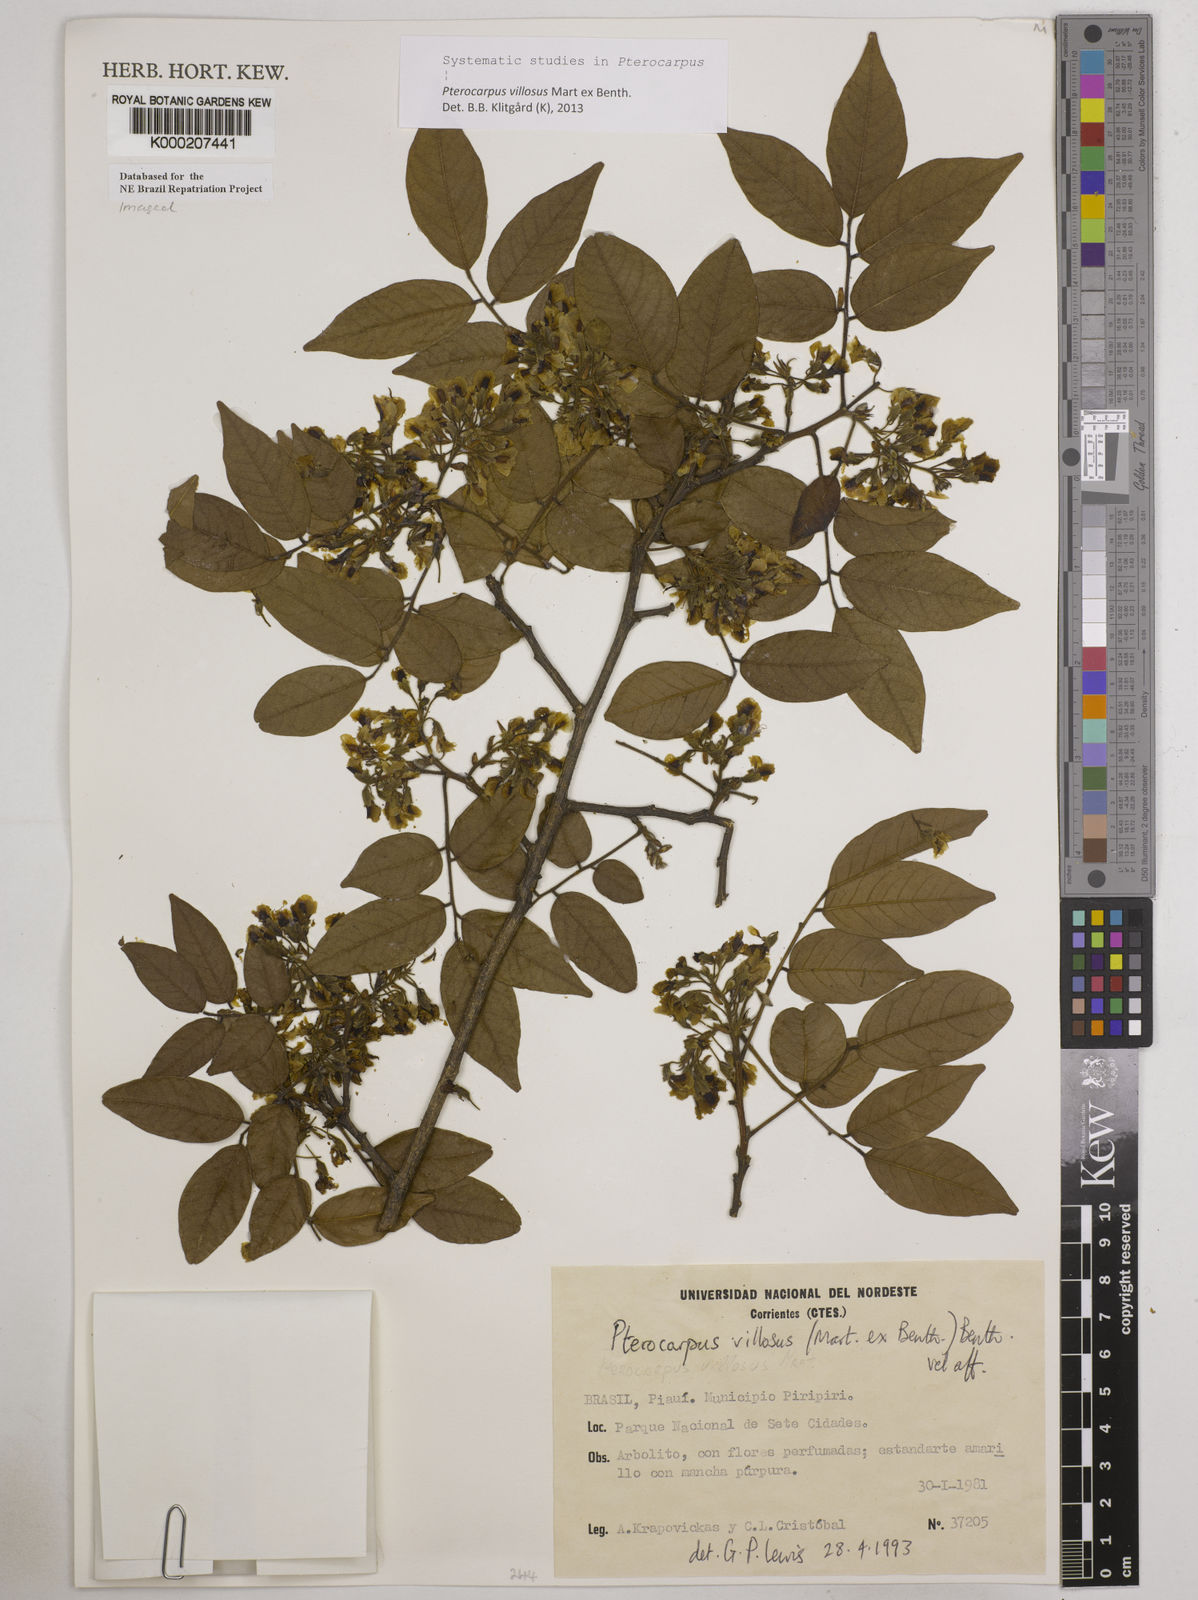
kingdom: Plantae
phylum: Tracheophyta
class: Magnoliopsida
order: Fabales
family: Fabaceae
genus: Pterocarpus
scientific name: Pterocarpus villosus
